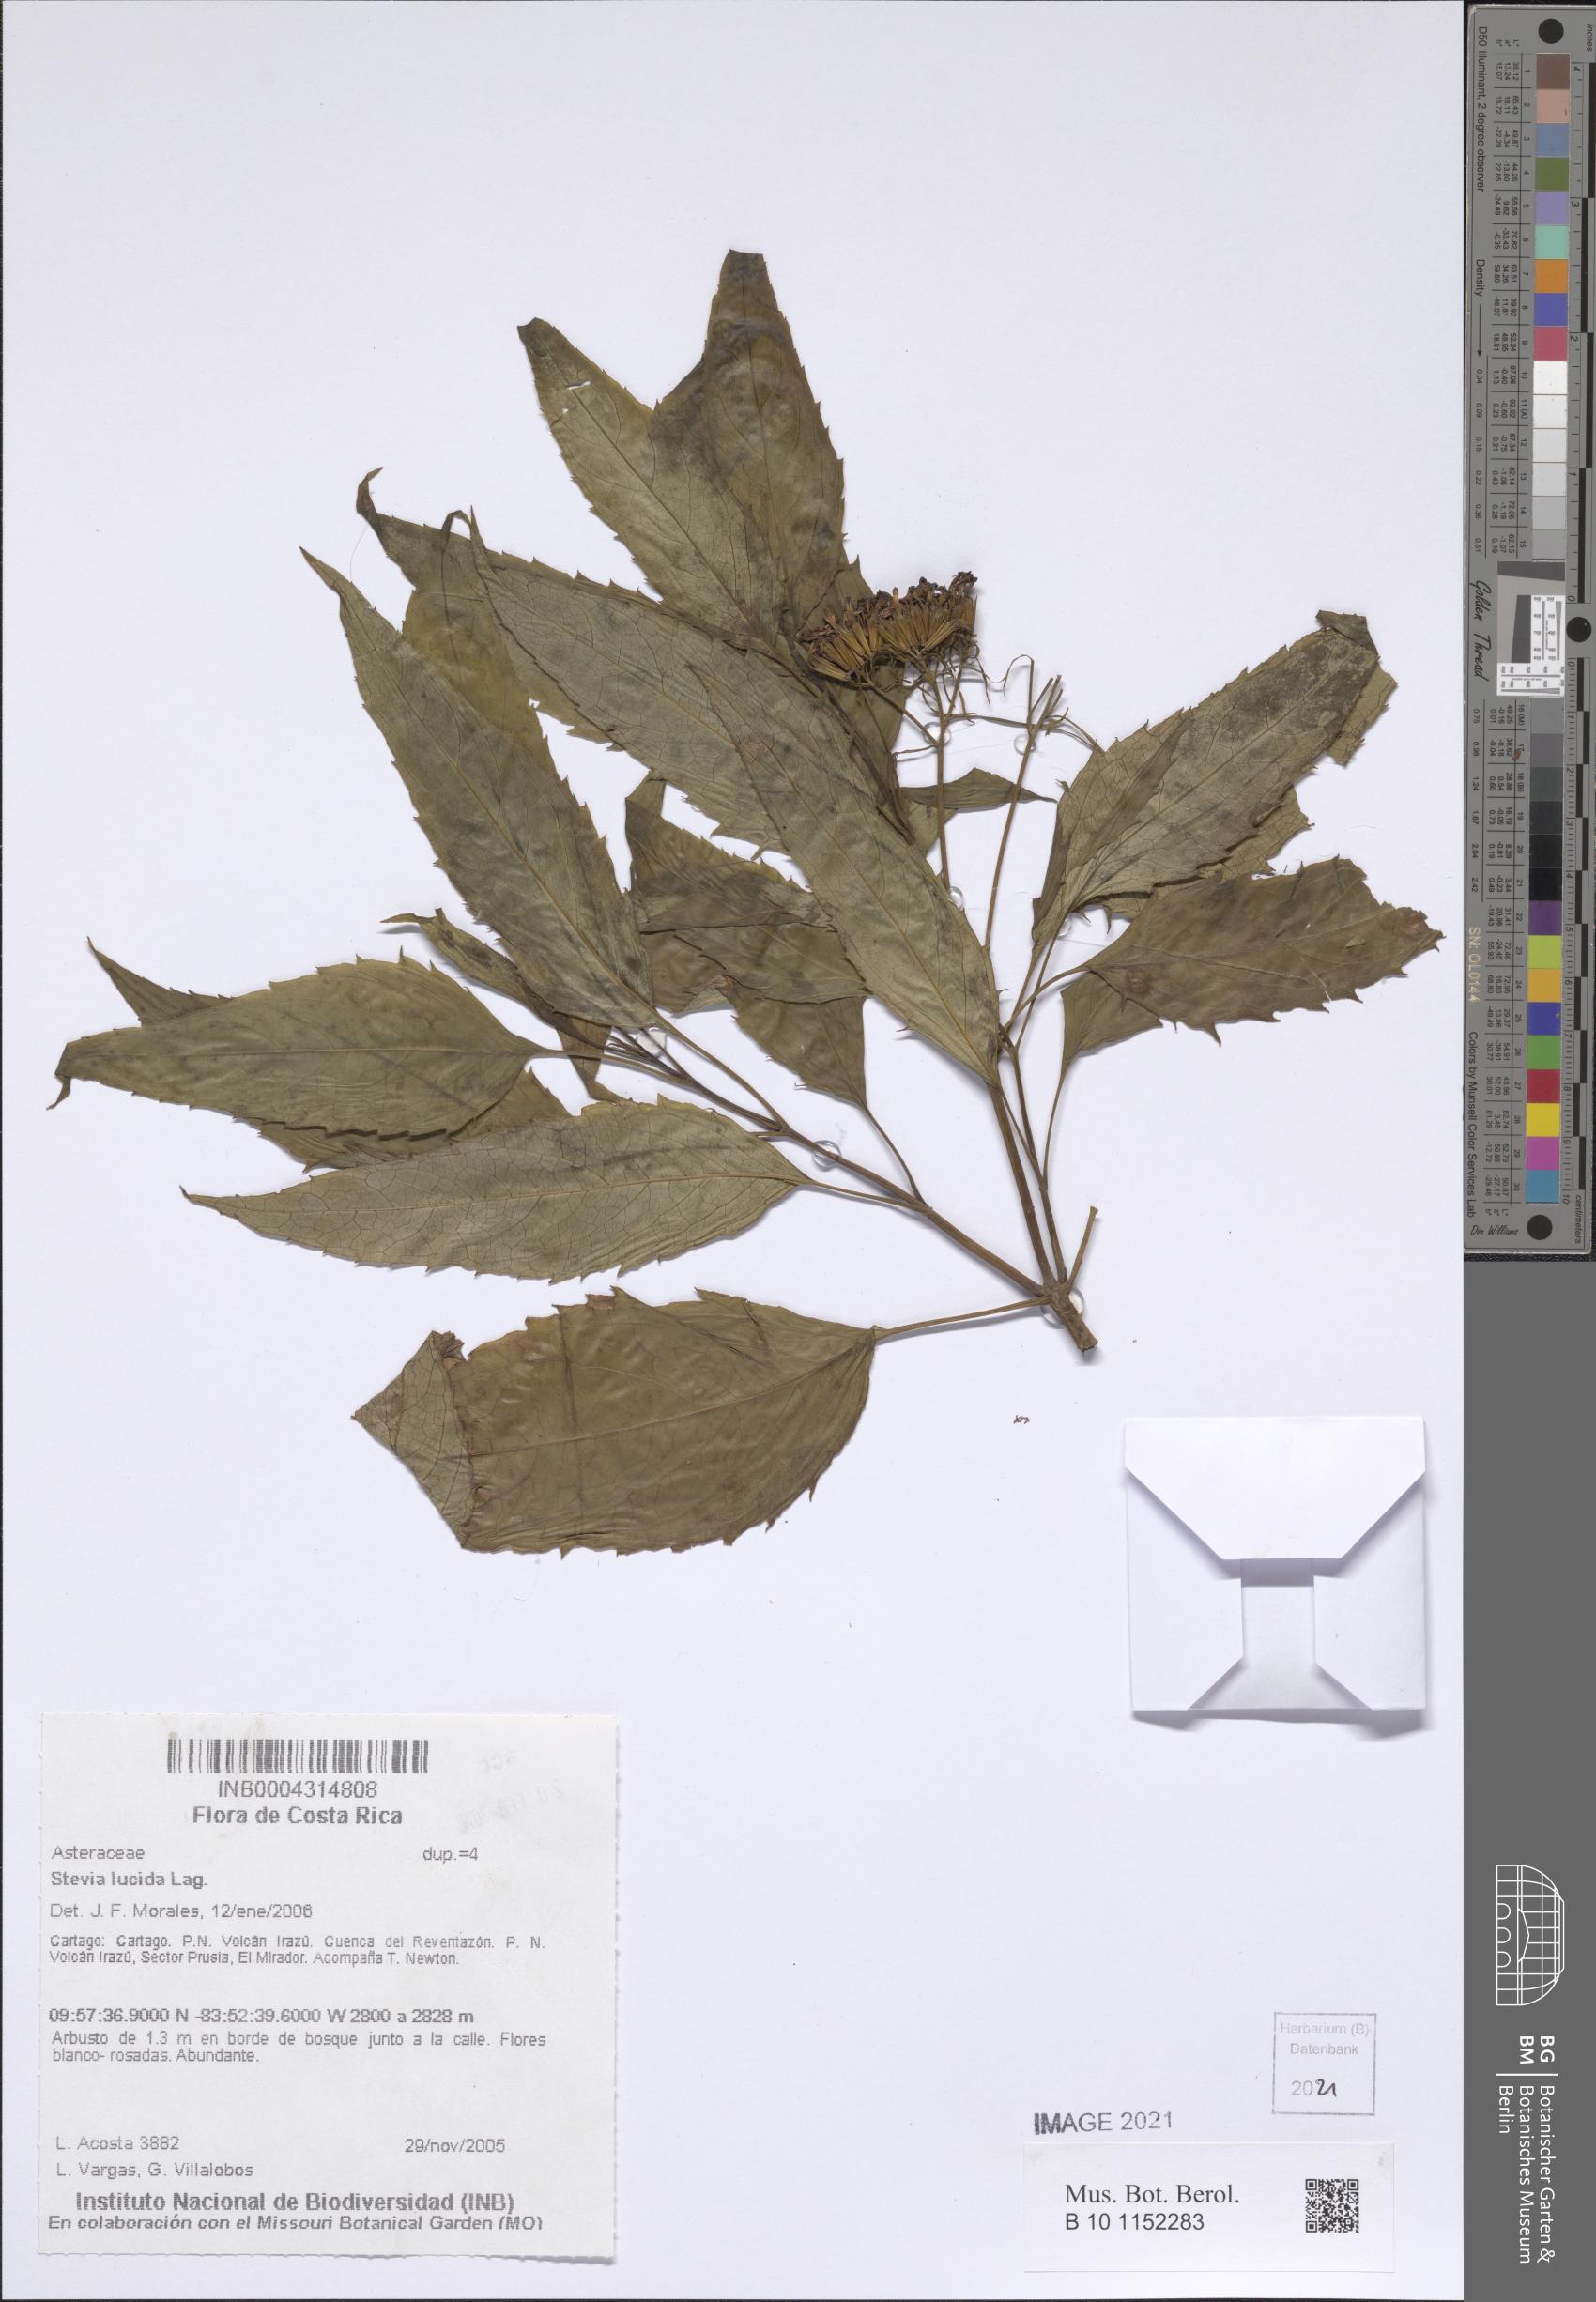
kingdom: Plantae
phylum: Tracheophyta
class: Magnoliopsida
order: Asterales
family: Asteraceae
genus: Stevia
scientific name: Stevia lucida
